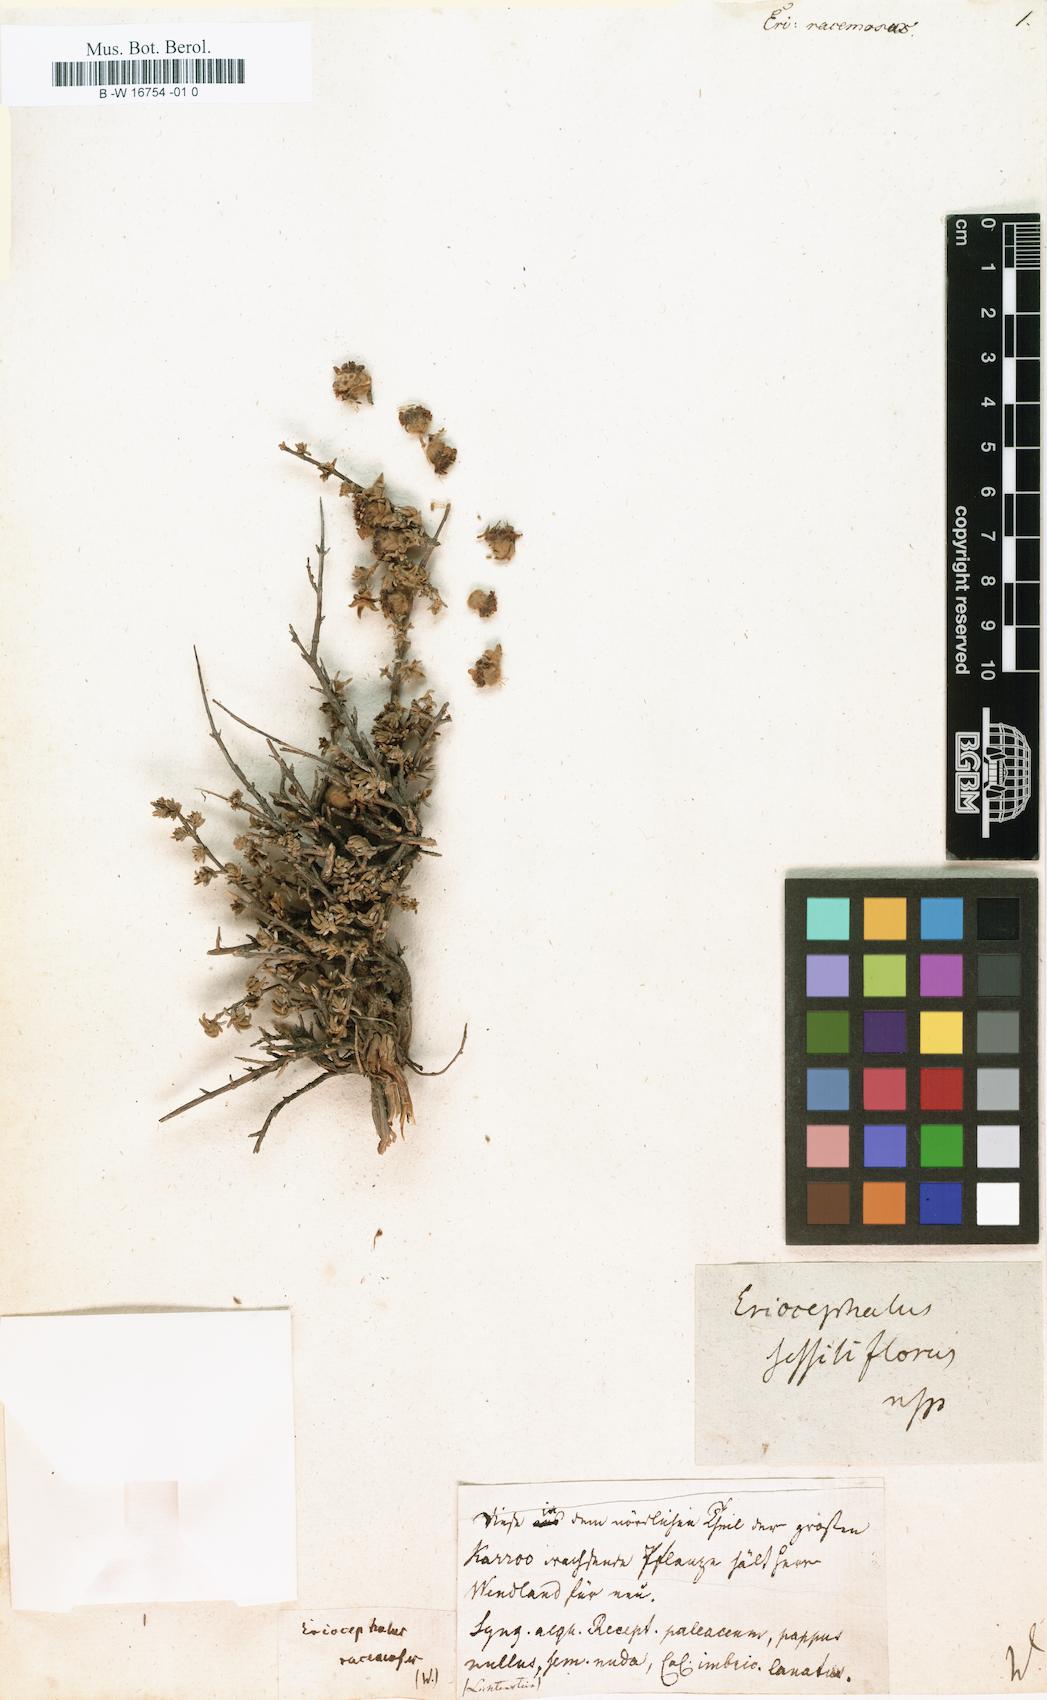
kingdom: Plantae
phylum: Tracheophyta
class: Magnoliopsida
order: Asterales
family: Asteraceae
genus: Eriocephalus
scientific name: Eriocephalus racemosus
